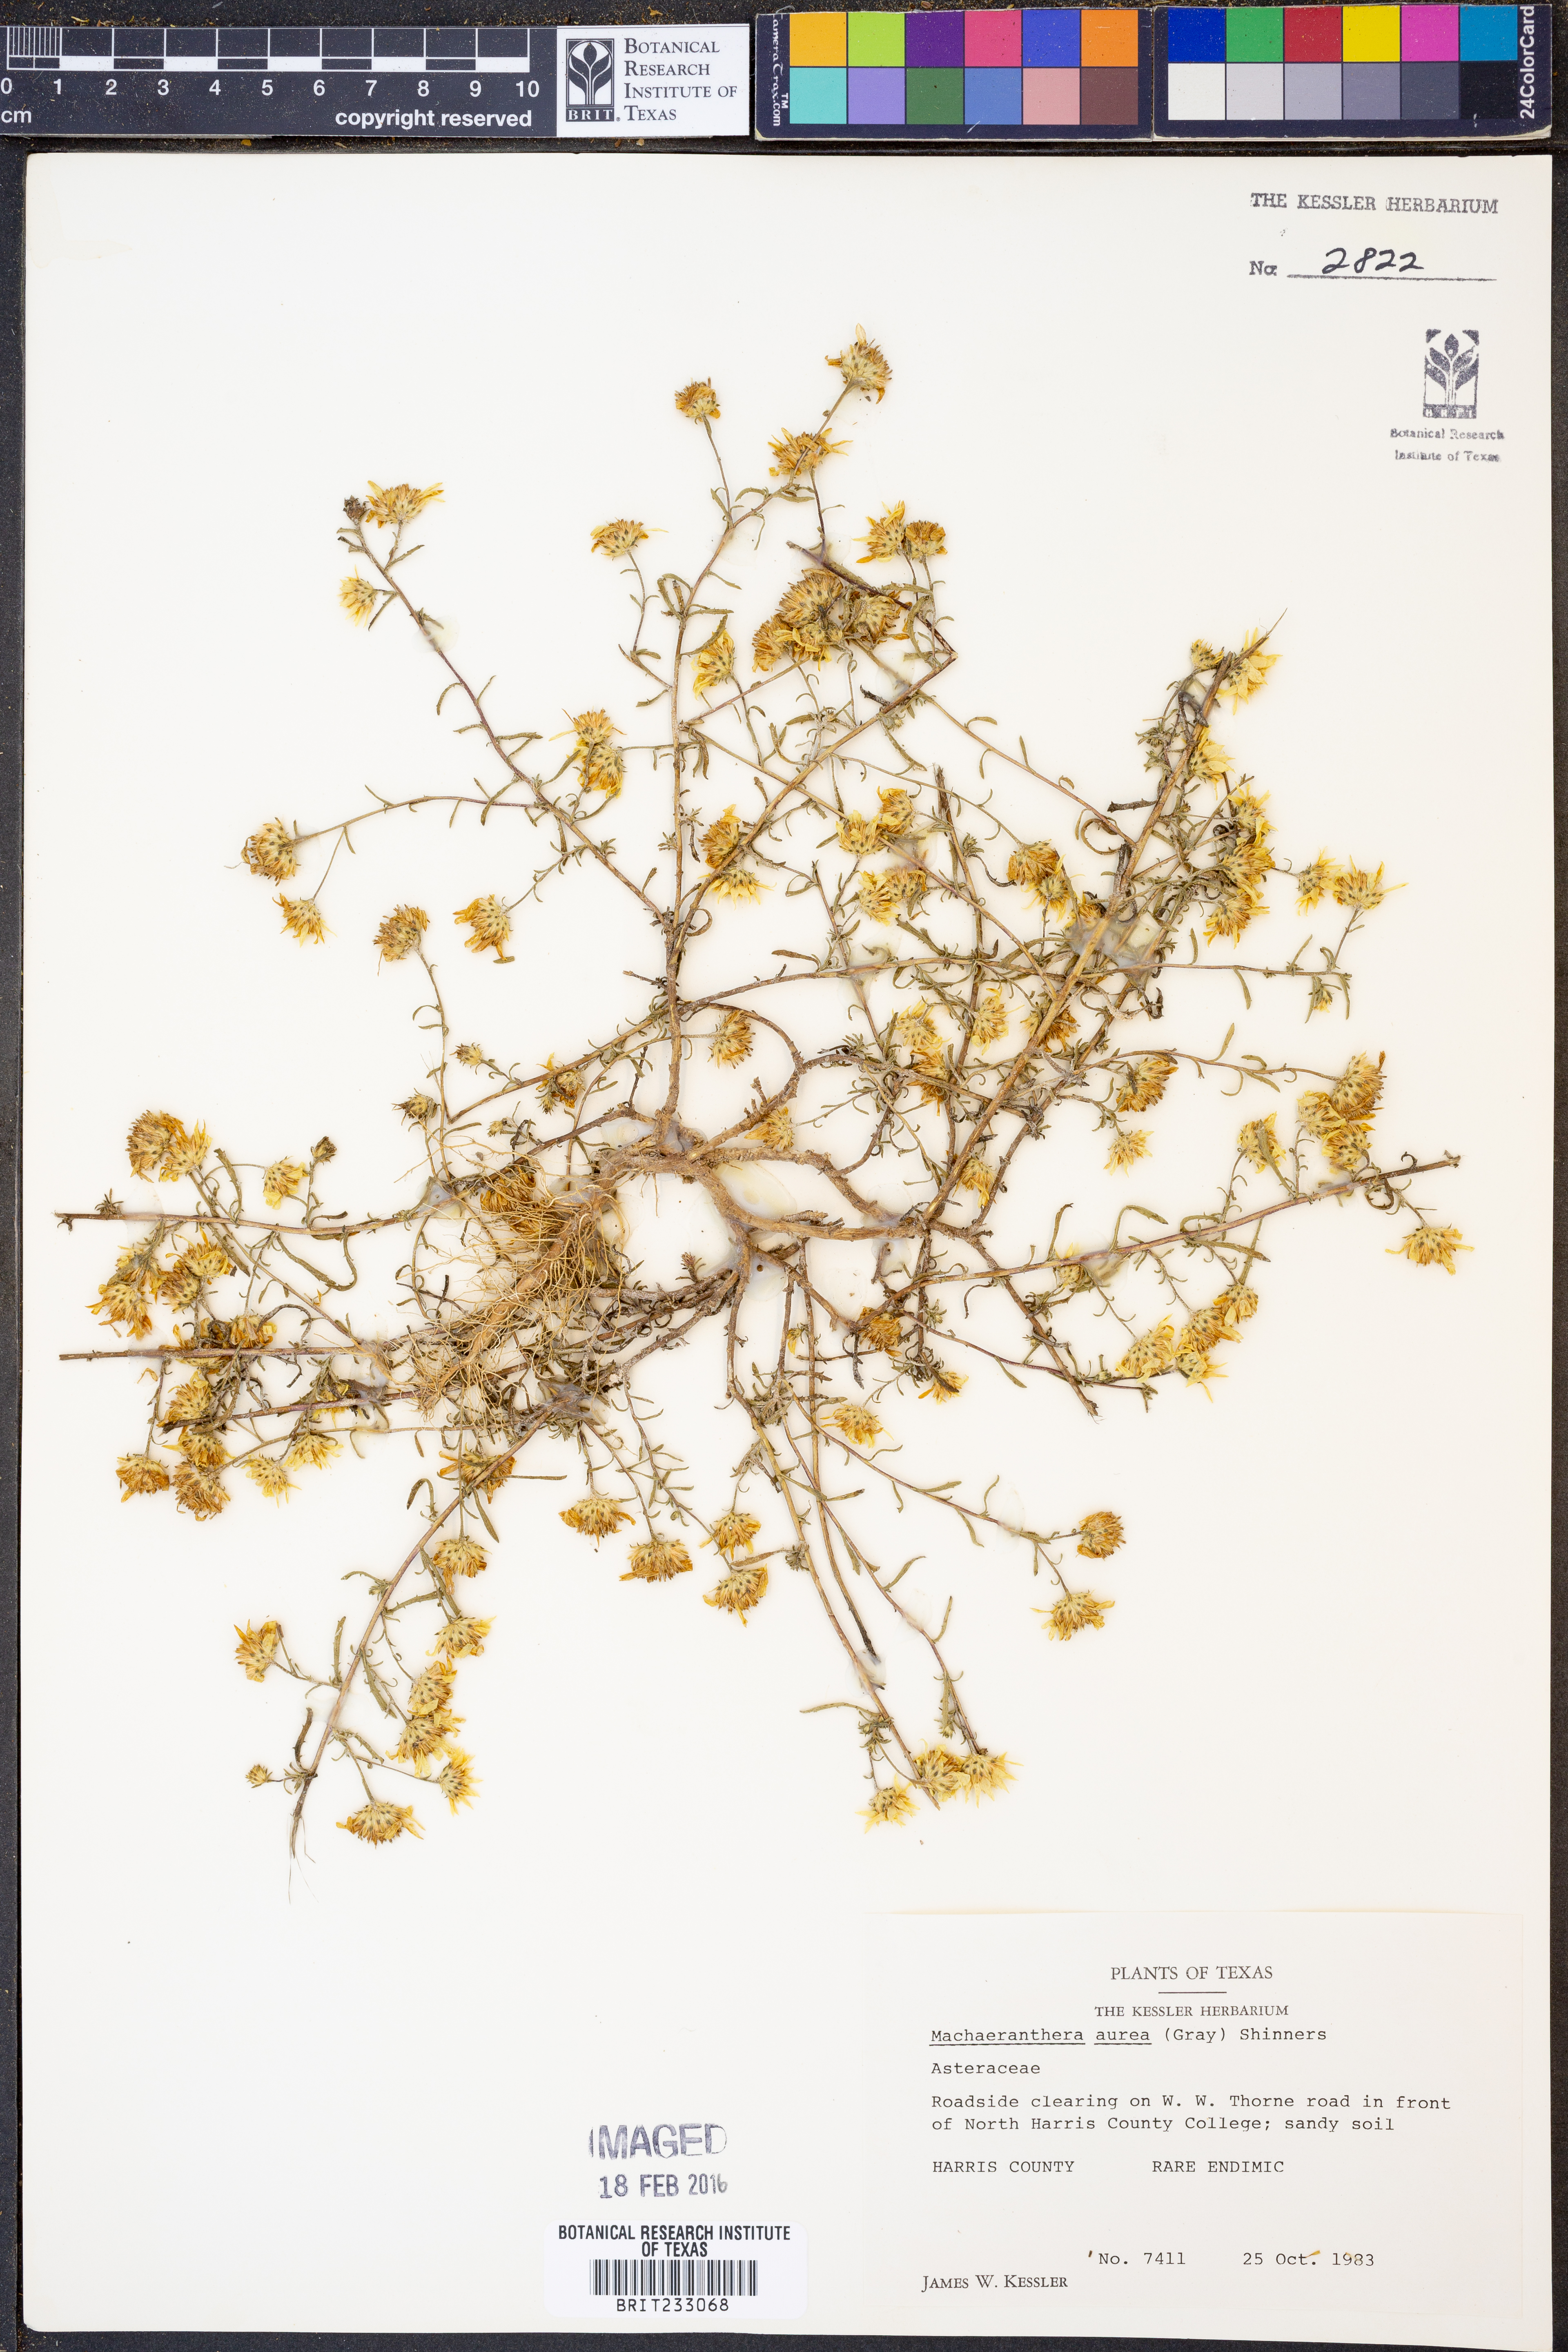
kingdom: Plantae
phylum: Tracheophyta
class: Magnoliopsida
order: Asterales
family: Asteraceae
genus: Rayjacksonia
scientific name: Rayjacksonia aurea
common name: Houston camphor daisy
